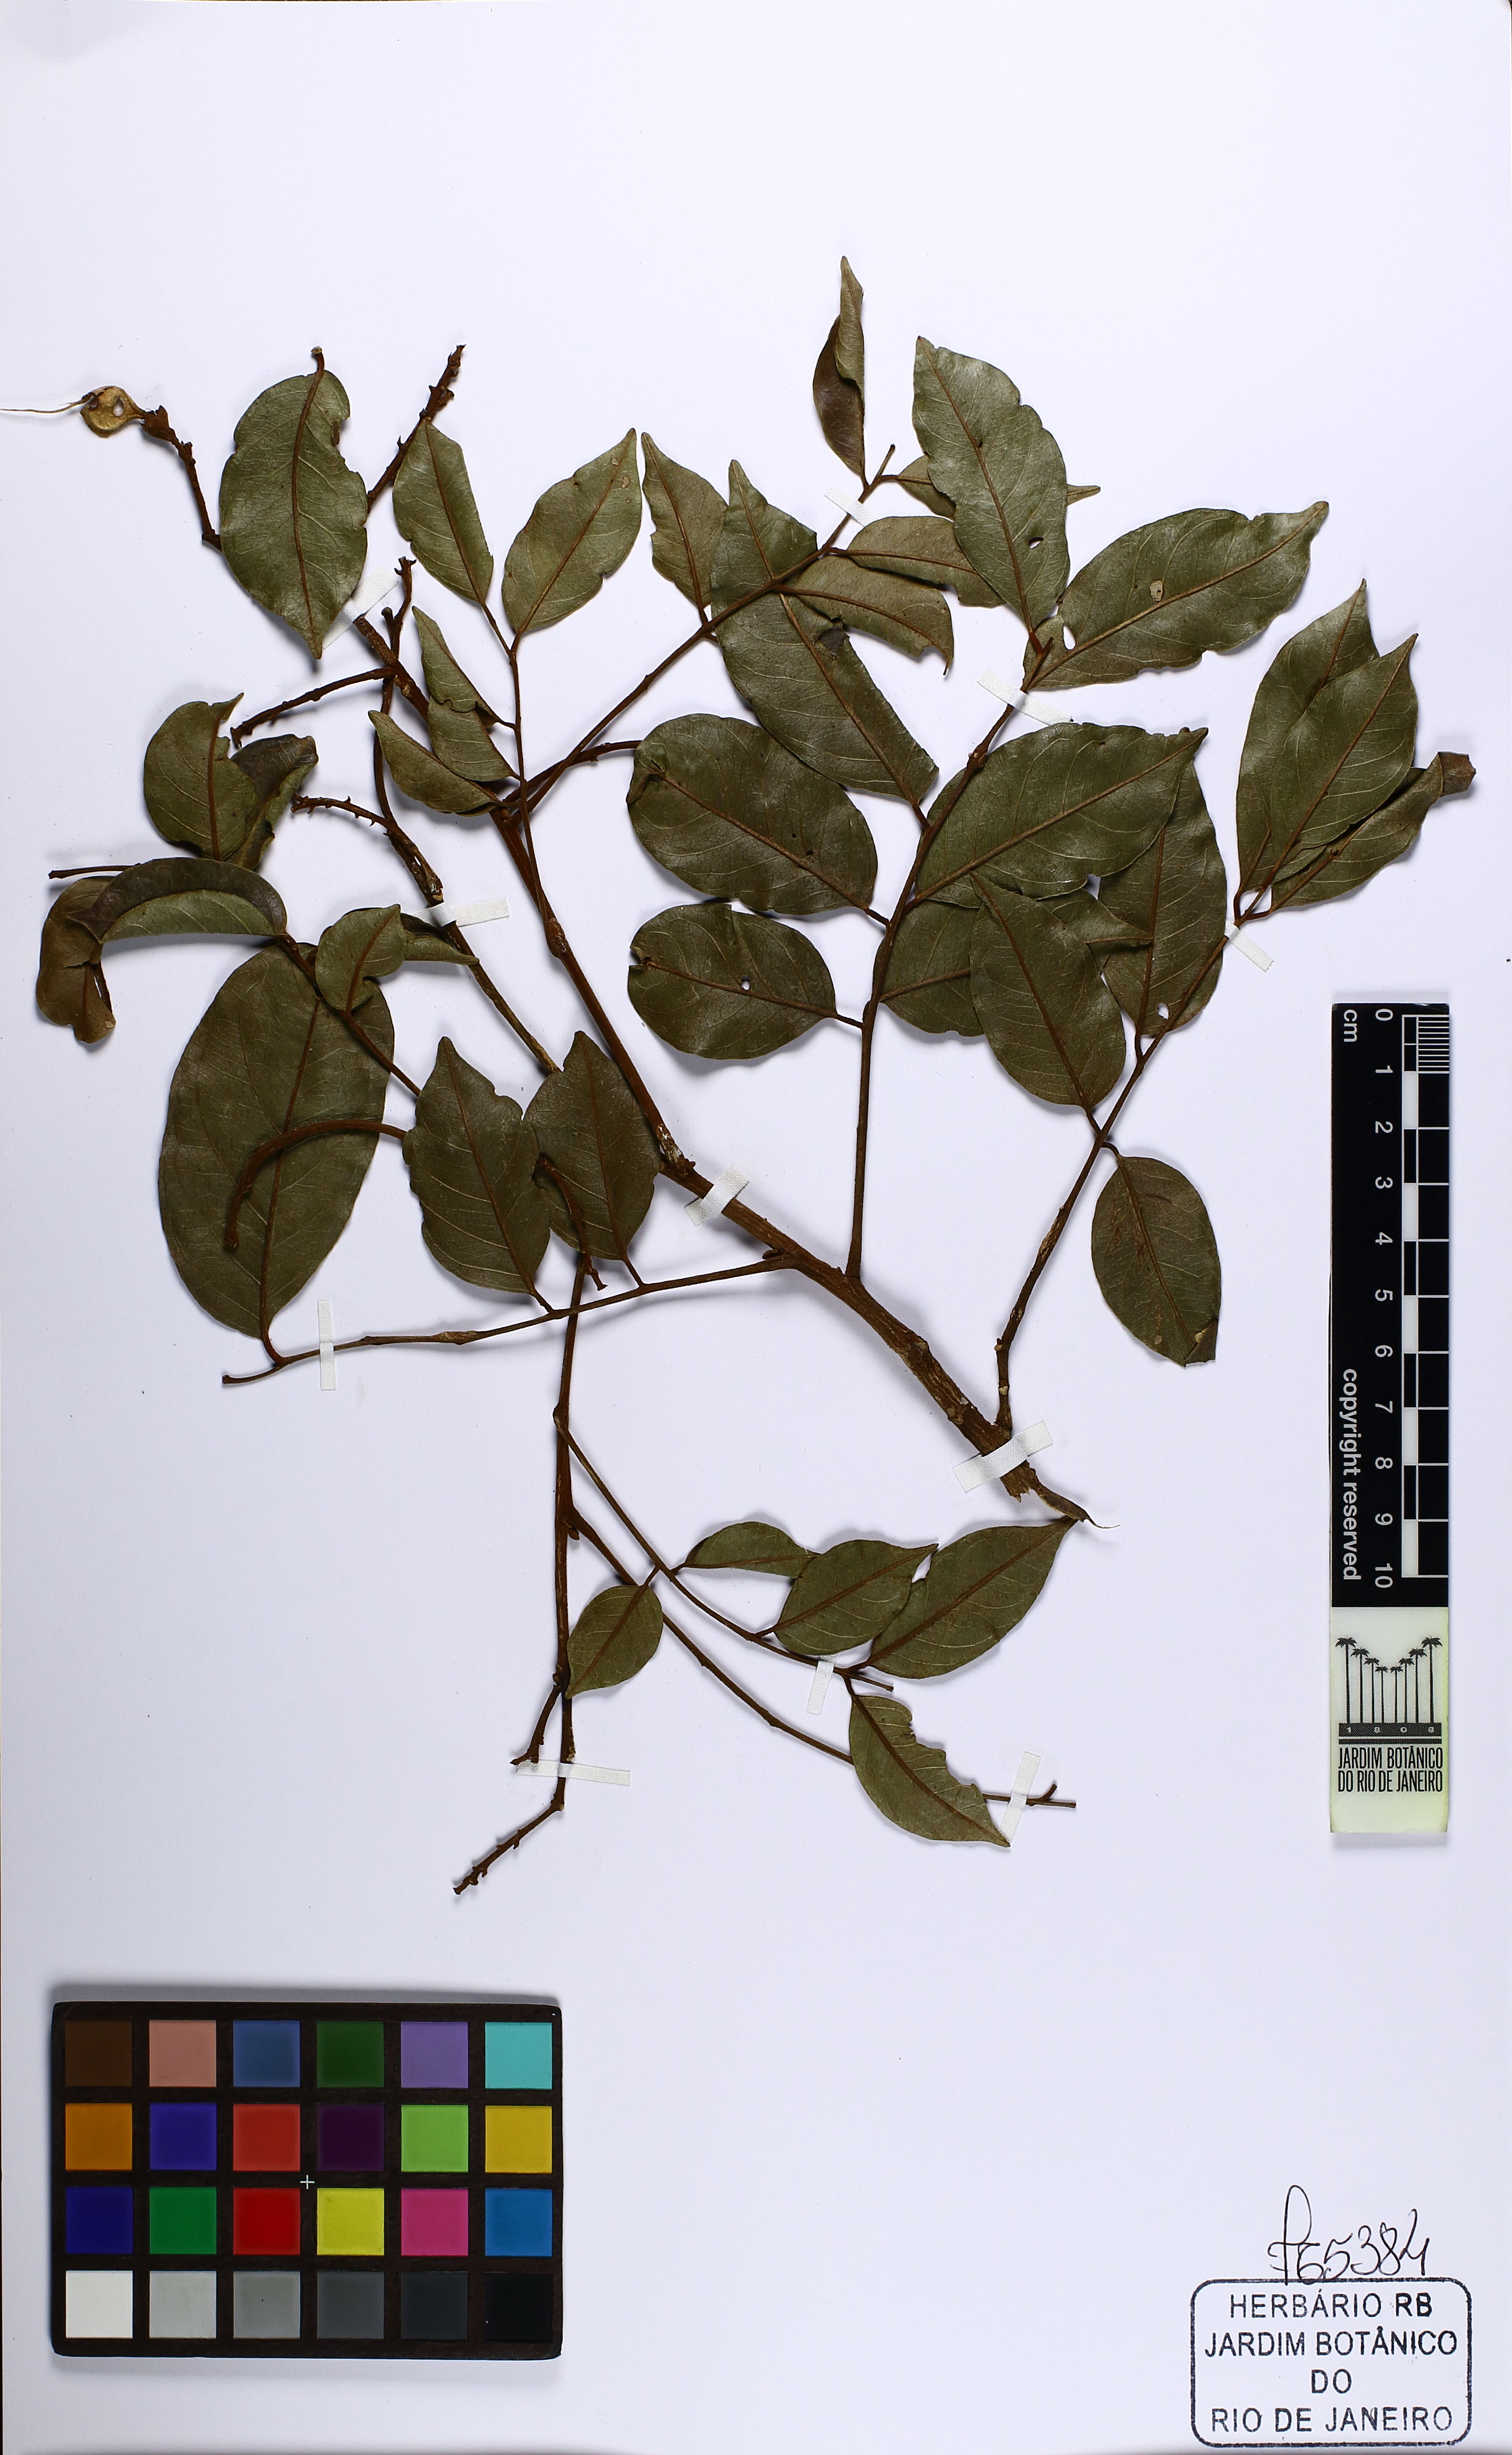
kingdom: Plantae
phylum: Tracheophyta
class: Magnoliopsida
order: Fabales
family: Fabaceae
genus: Diplotropis
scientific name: Diplotropis incexis
